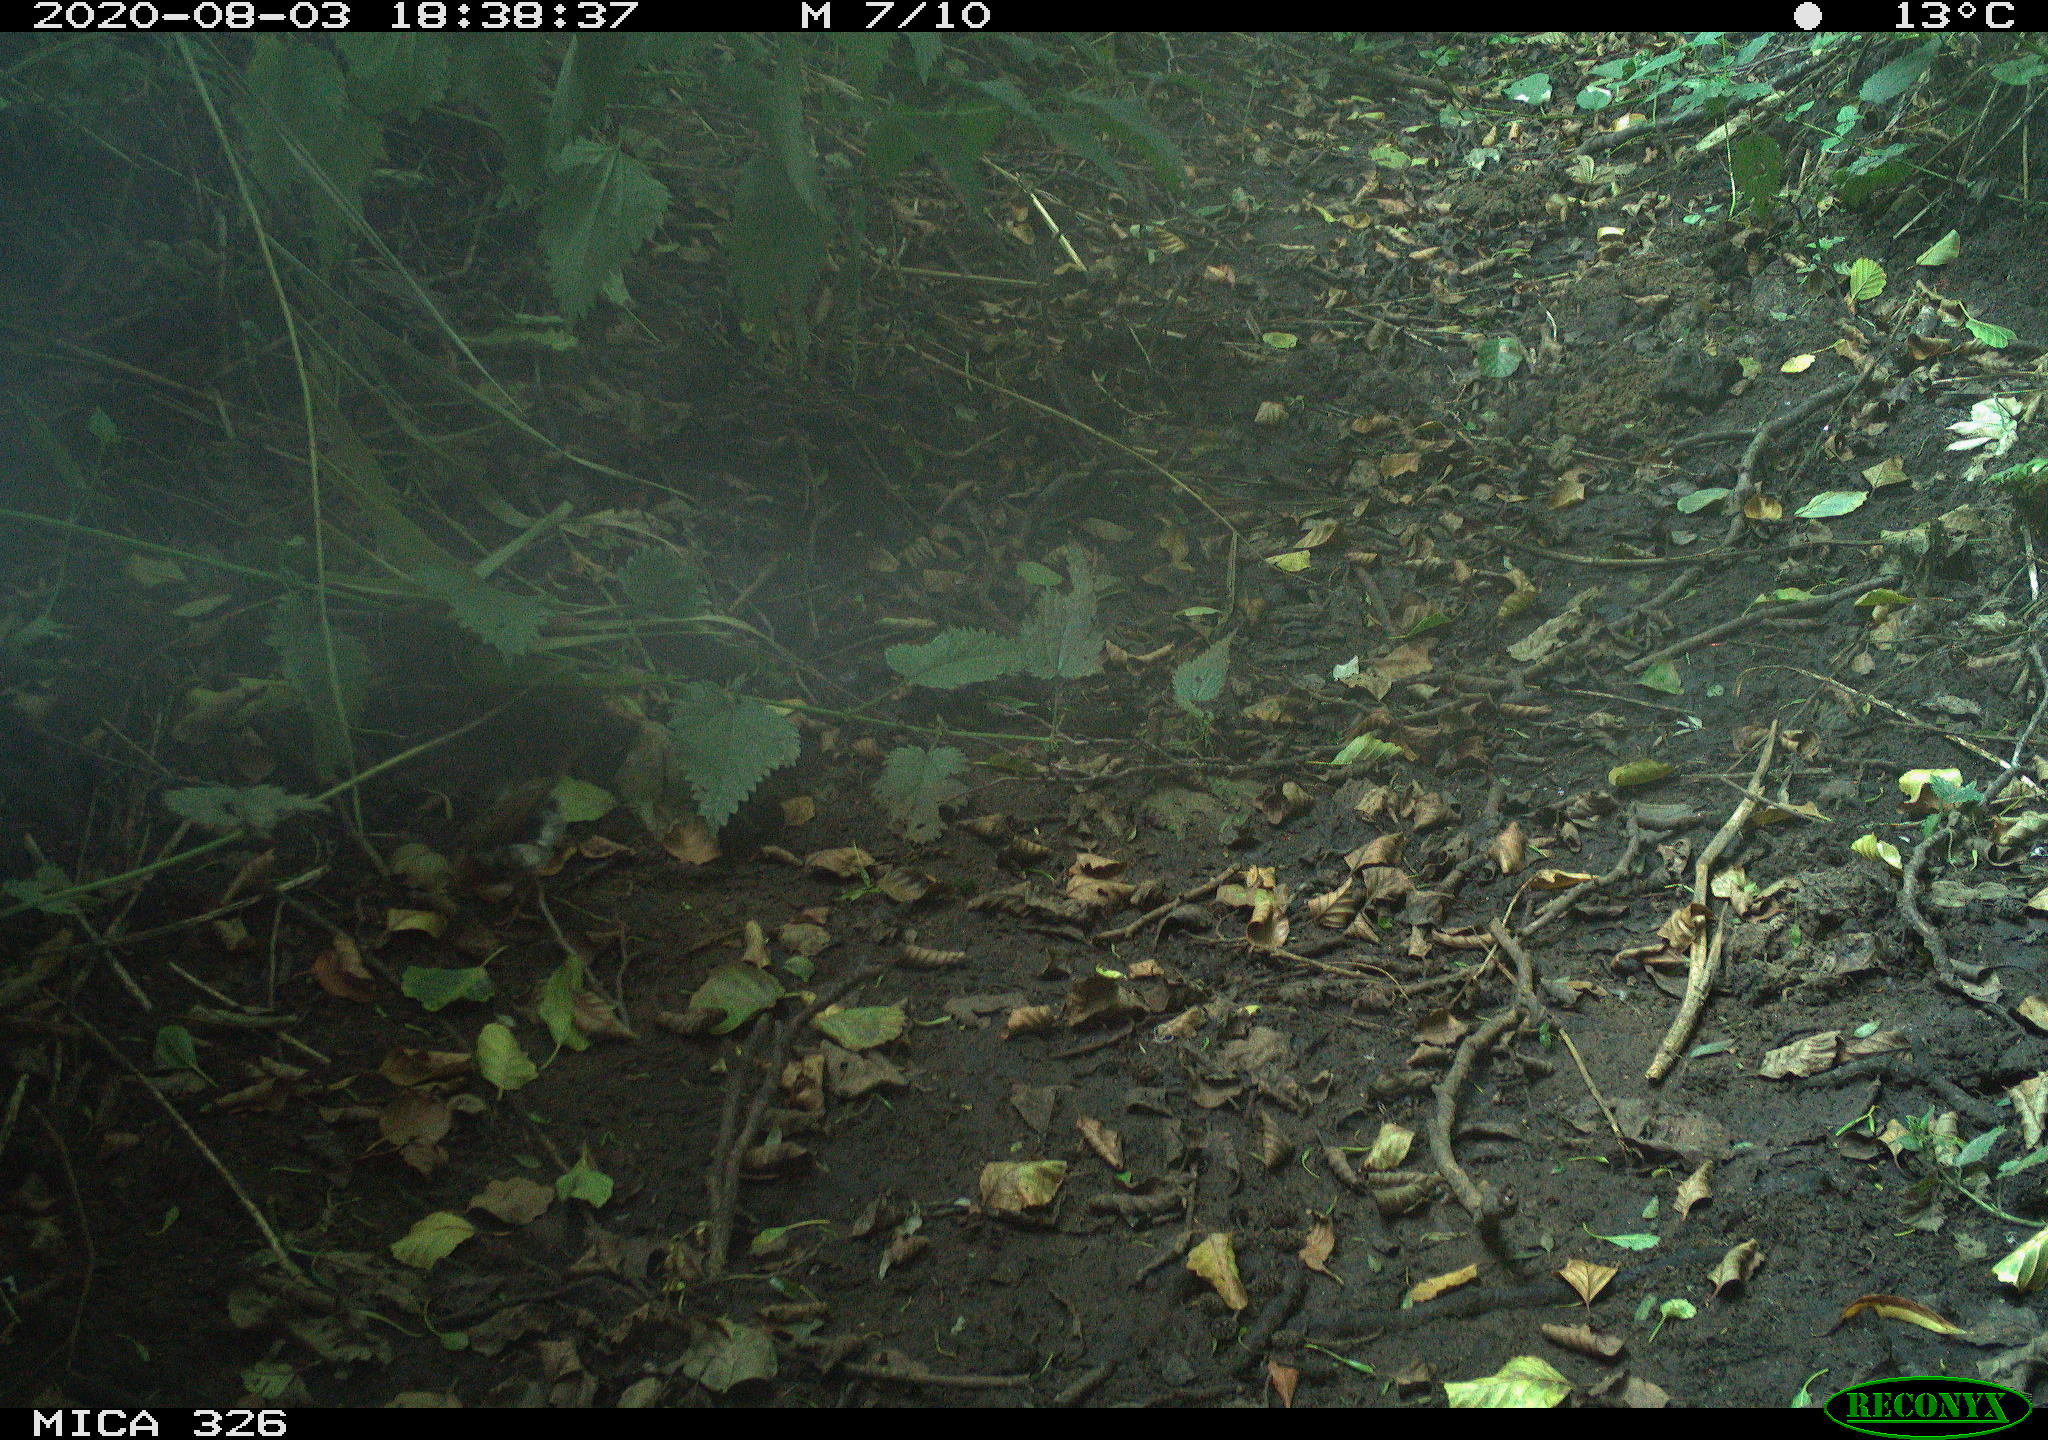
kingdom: Animalia
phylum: Chordata
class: Aves
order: Passeriformes
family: Muscicapidae
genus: Erithacus
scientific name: Erithacus rubecula
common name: European robin
